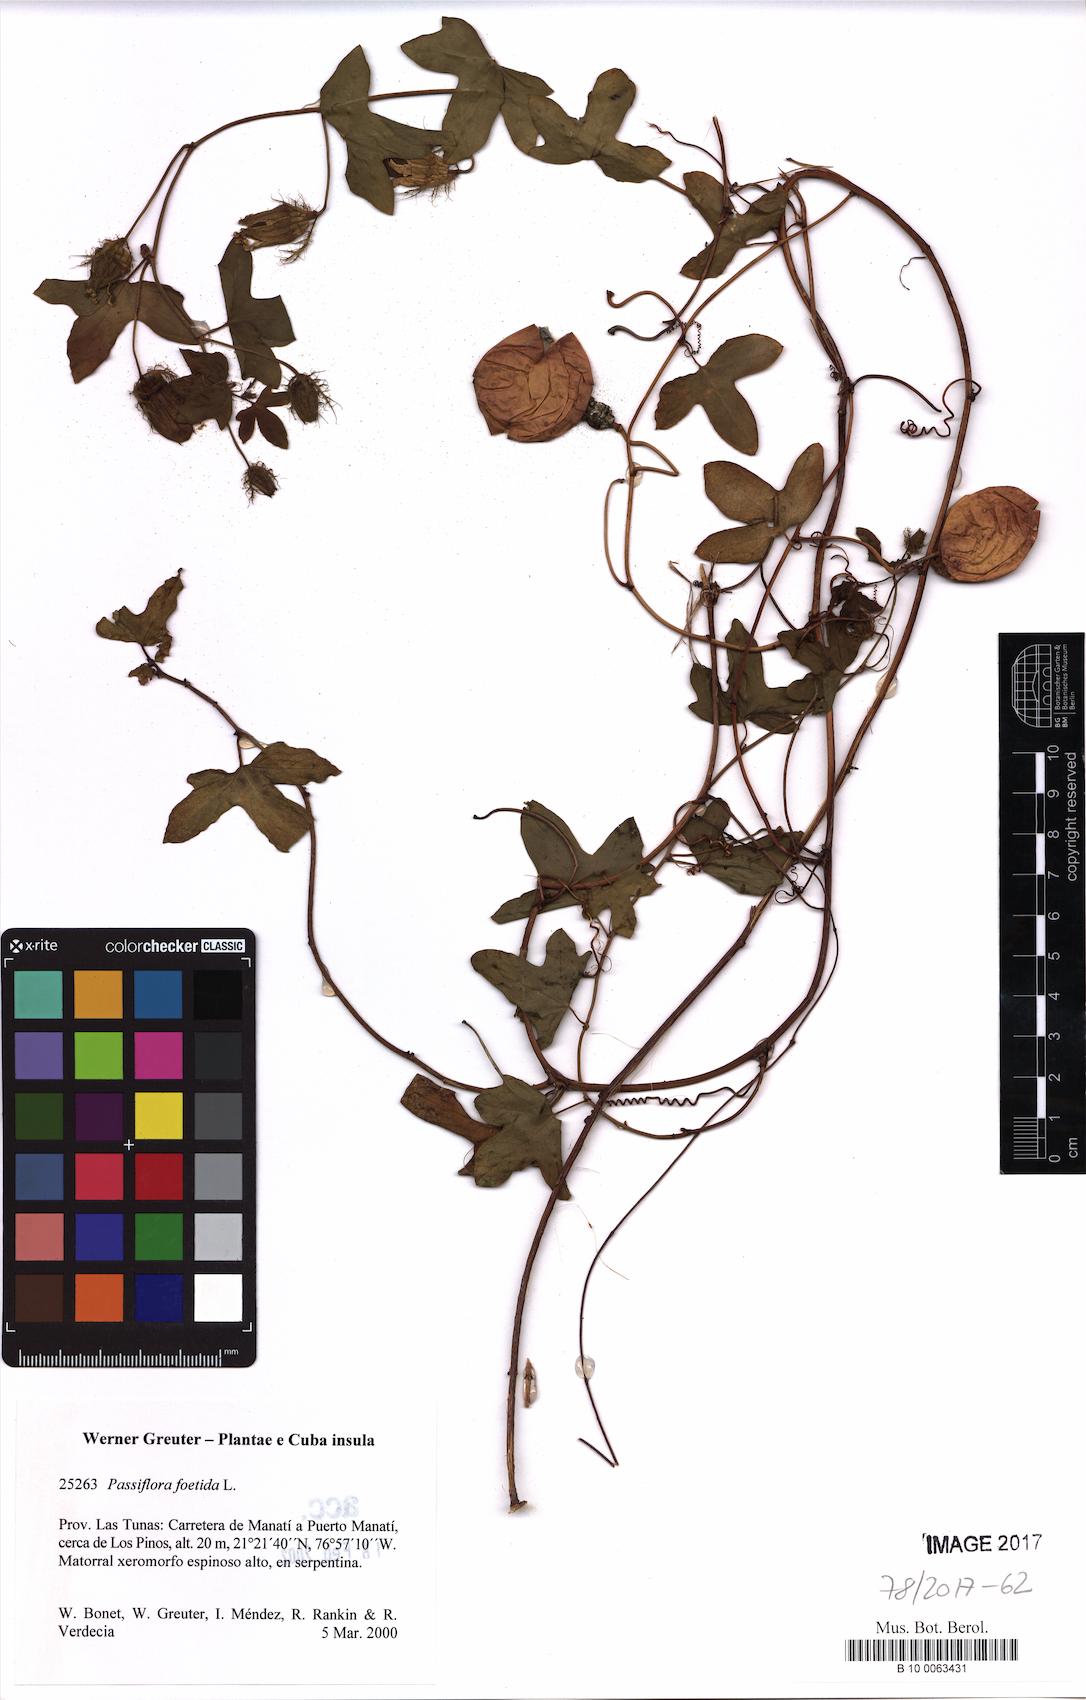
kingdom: Plantae
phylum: Tracheophyta
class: Magnoliopsida
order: Malpighiales
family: Passifloraceae
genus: Passiflora
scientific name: Passiflora foetida
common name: Fetid passionflower
